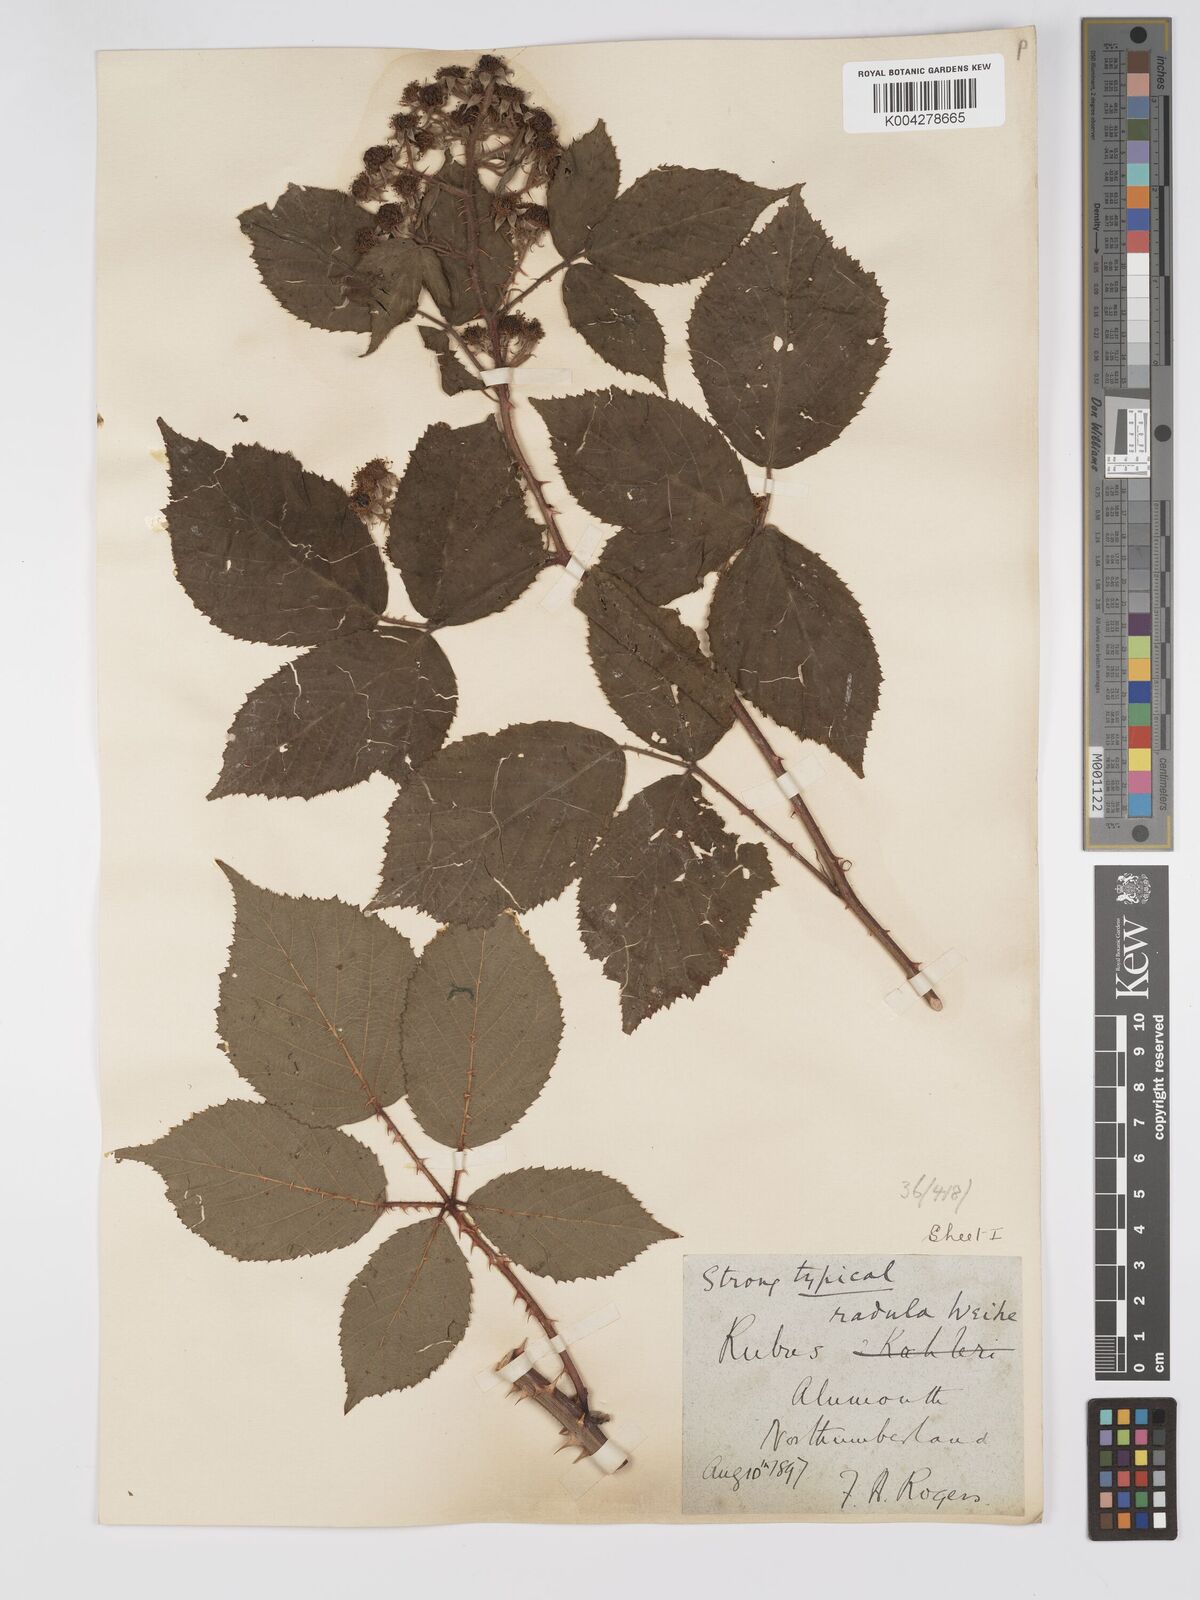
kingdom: Plantae
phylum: Tracheophyta
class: Magnoliopsida
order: Rosales
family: Rosaceae
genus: Rubus
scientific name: Rubus radula
